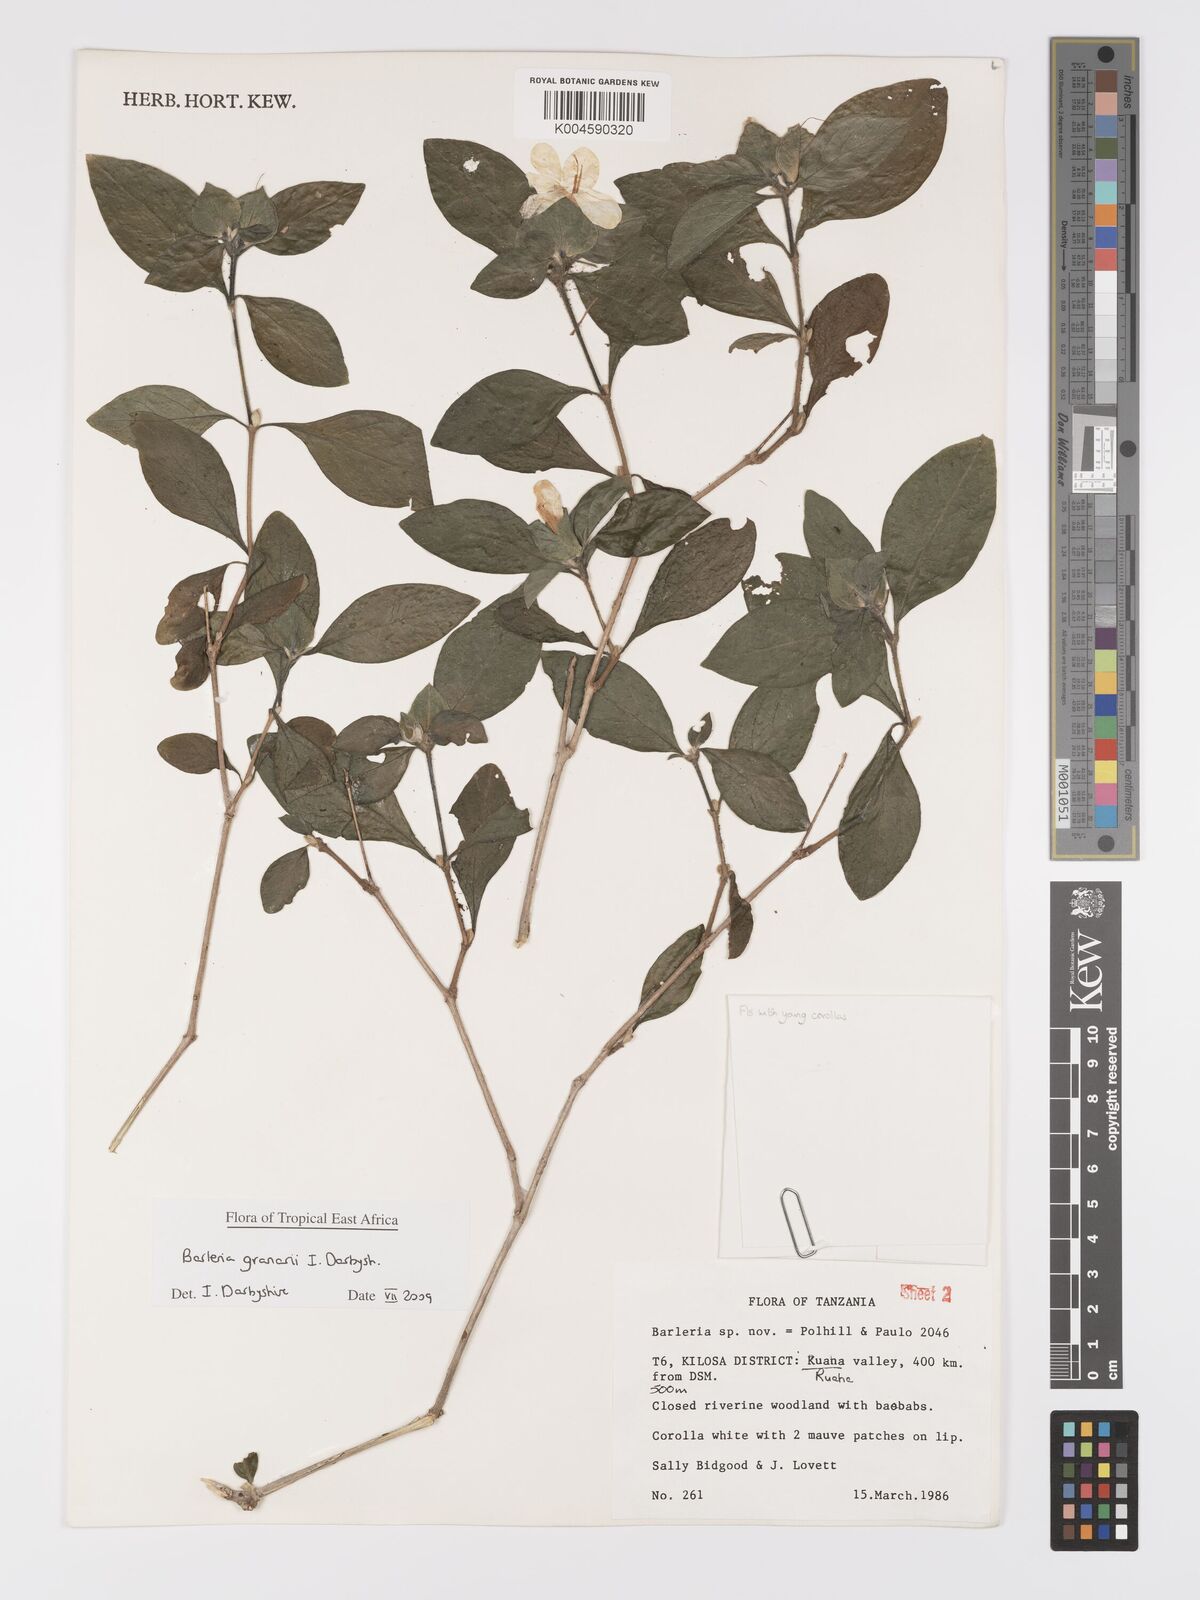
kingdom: Plantae
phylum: Tracheophyta
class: Magnoliopsida
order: Lamiales
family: Acanthaceae
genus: Barleria
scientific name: Barleria granarii
